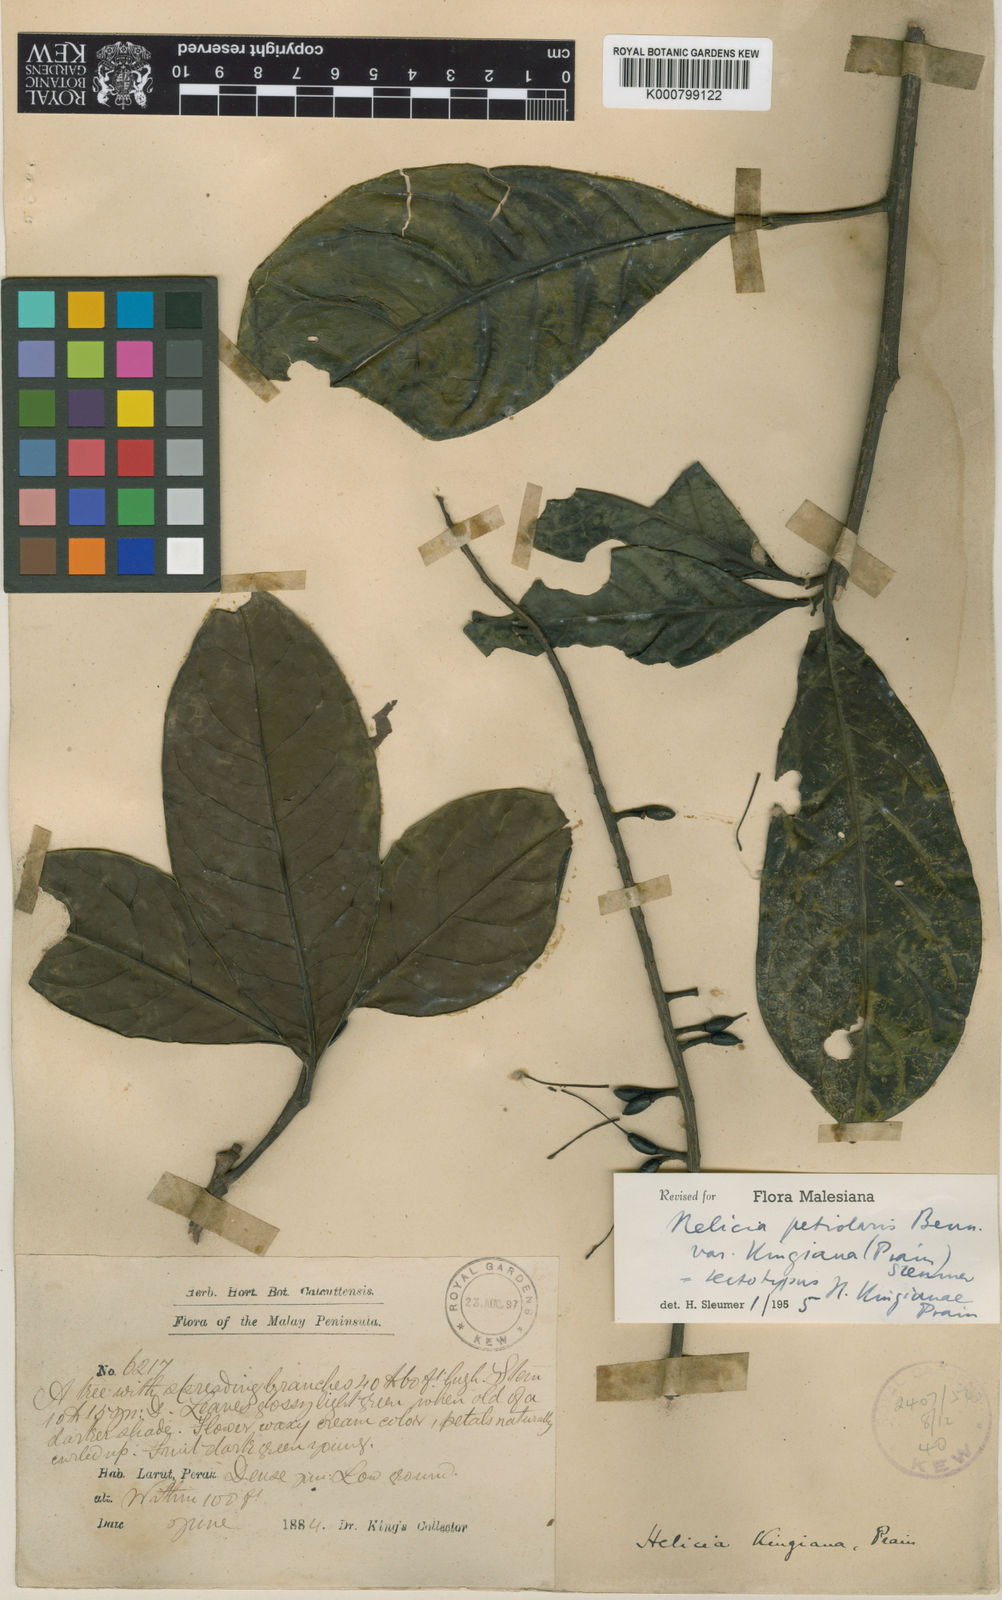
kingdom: Plantae
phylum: Tracheophyta
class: Magnoliopsida
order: Proteales
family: Proteaceae
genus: Helicia
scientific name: Helicia petiolaris
